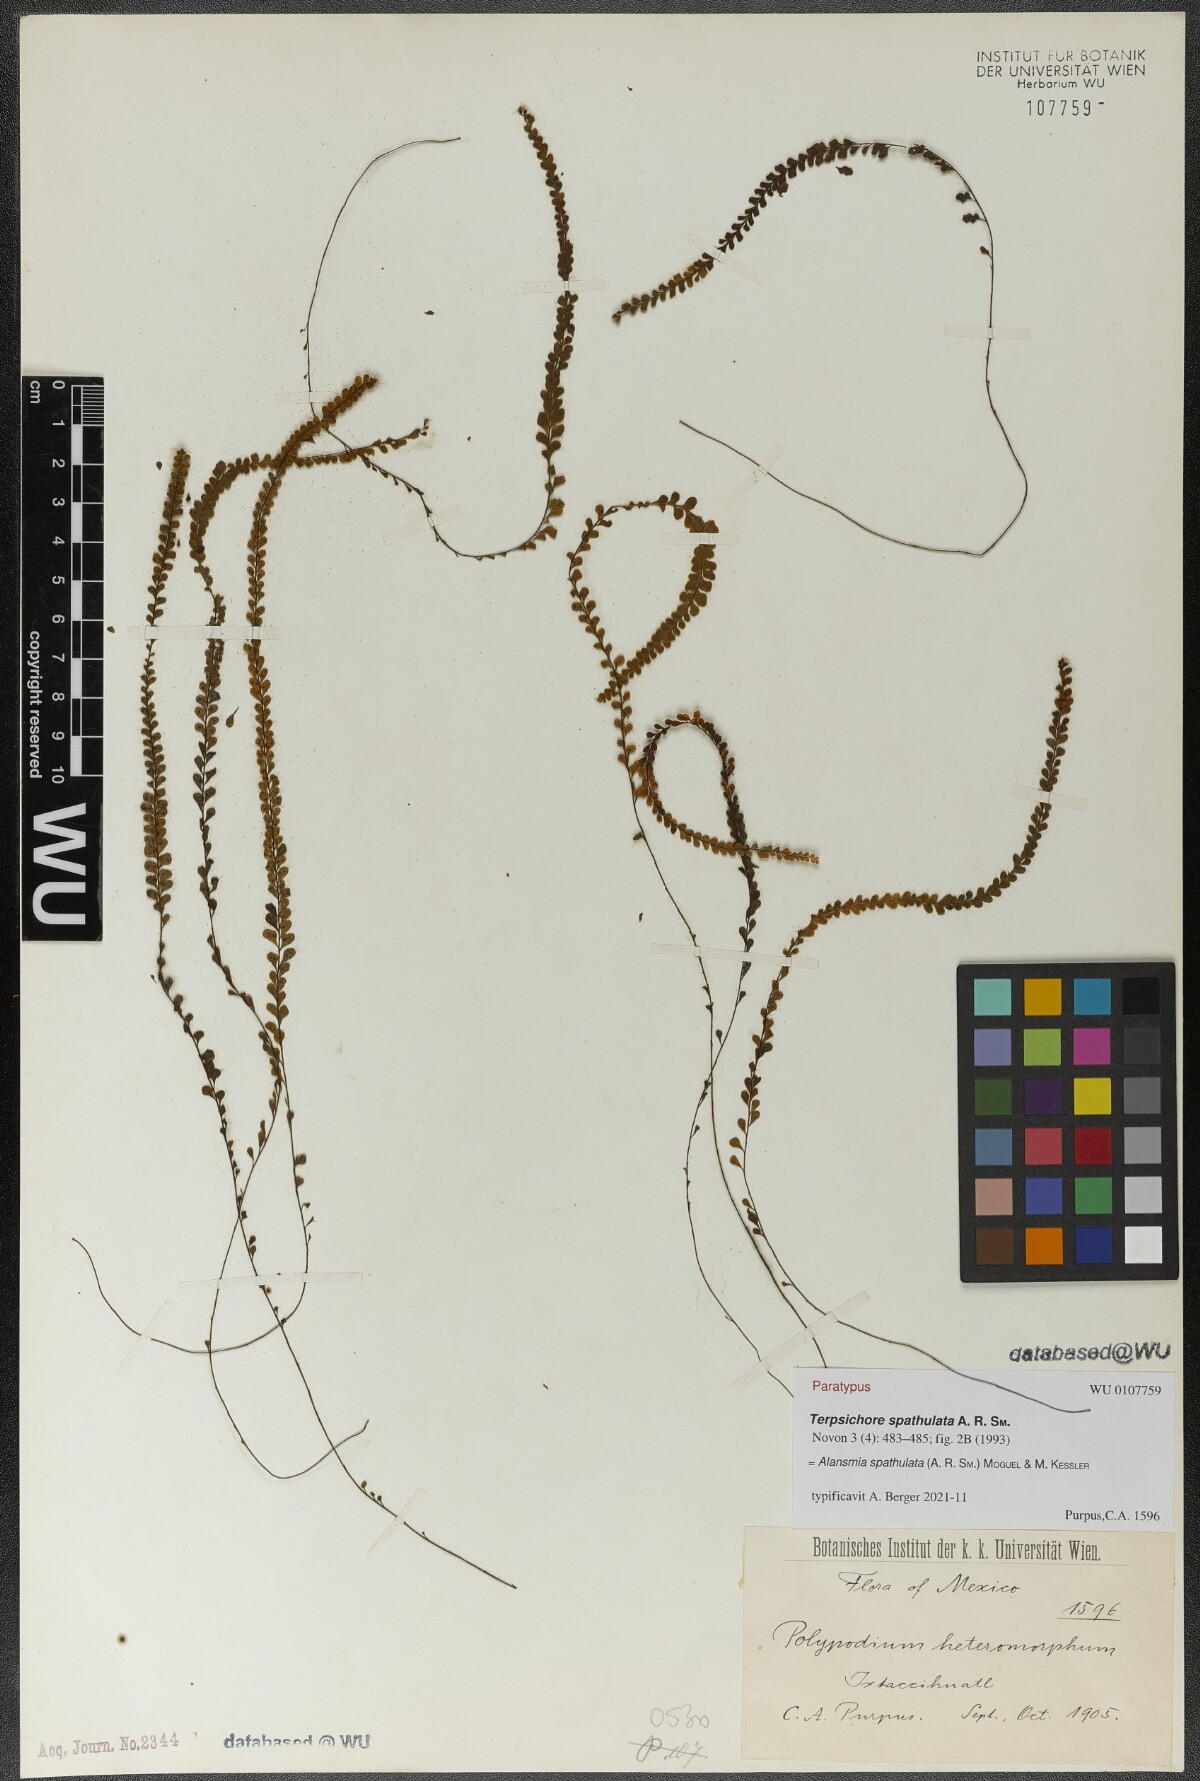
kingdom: Plantae
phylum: Tracheophyta
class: Polypodiopsida
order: Polypodiales
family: Polypodiaceae
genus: Alansmia
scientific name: Alansmia spathulata
